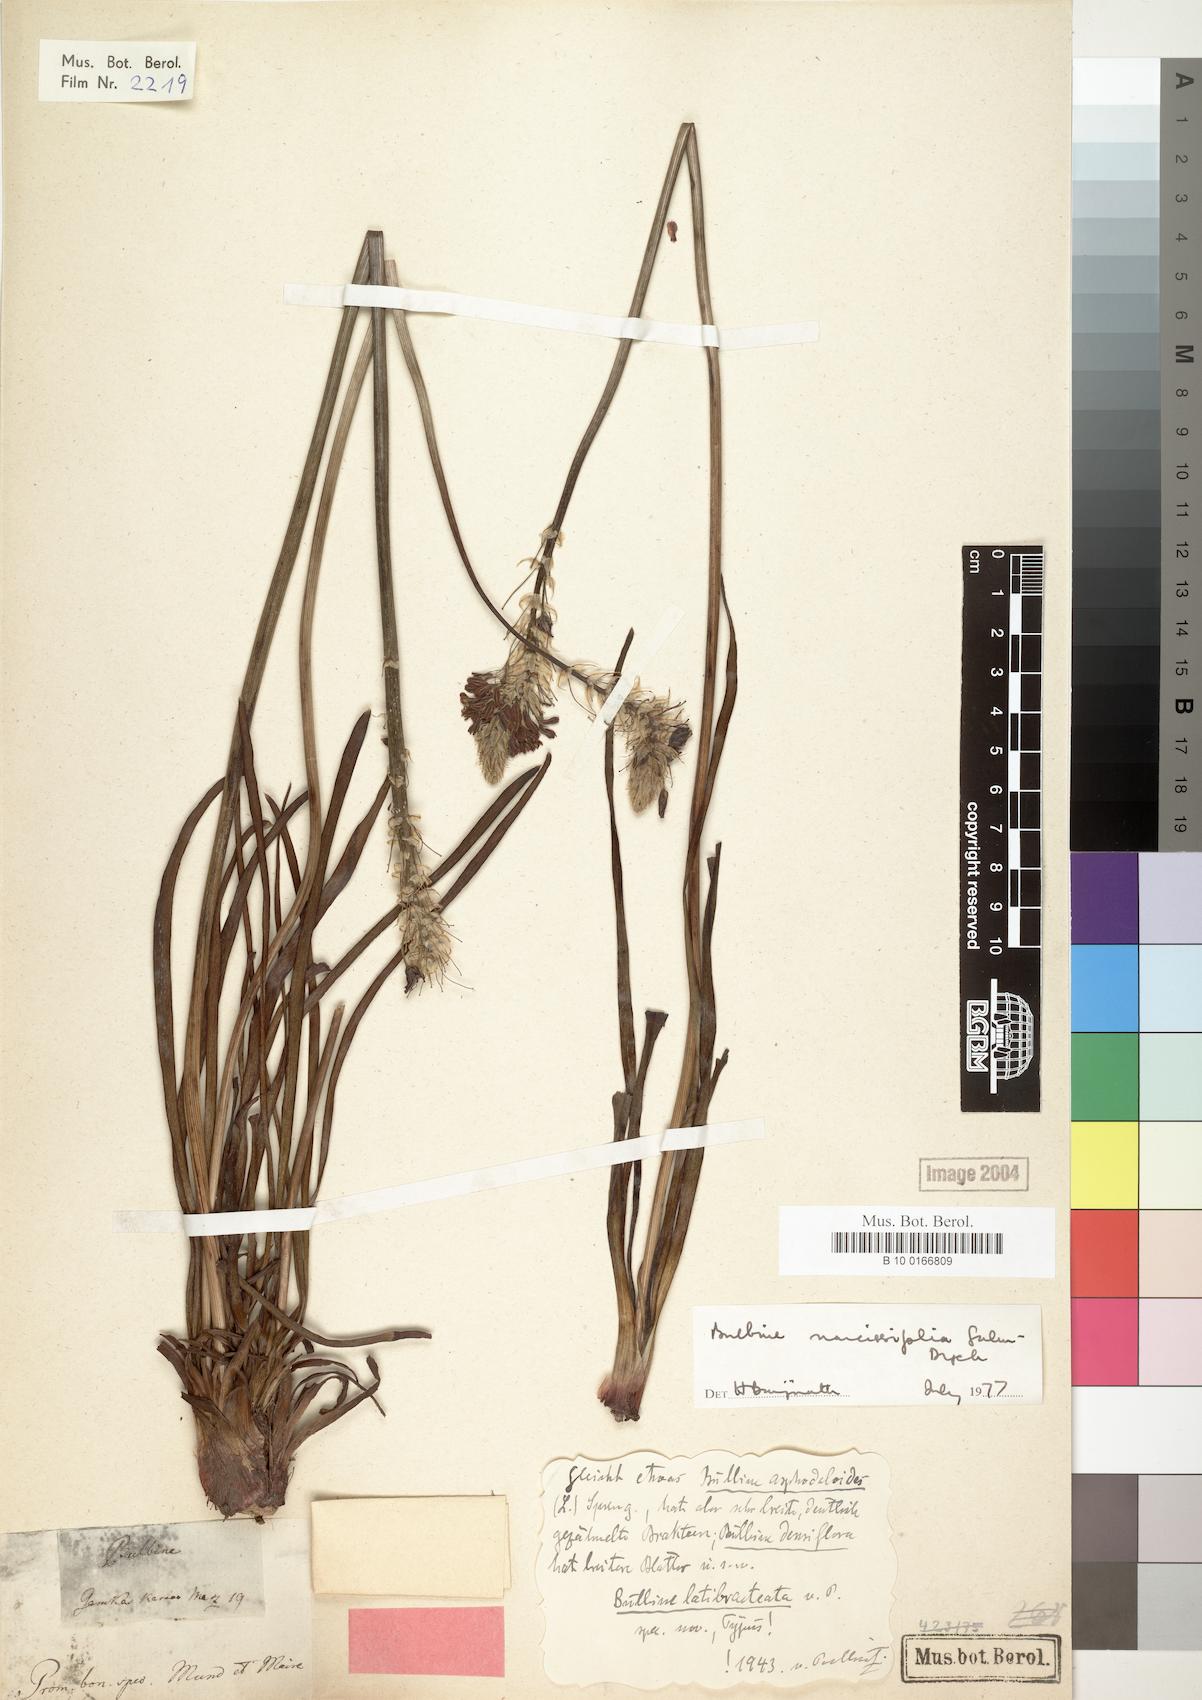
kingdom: Plantae
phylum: Tracheophyta
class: Liliopsida
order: Asparagales
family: Asphodelaceae
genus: Bulbine
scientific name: Bulbine narcissifolia
